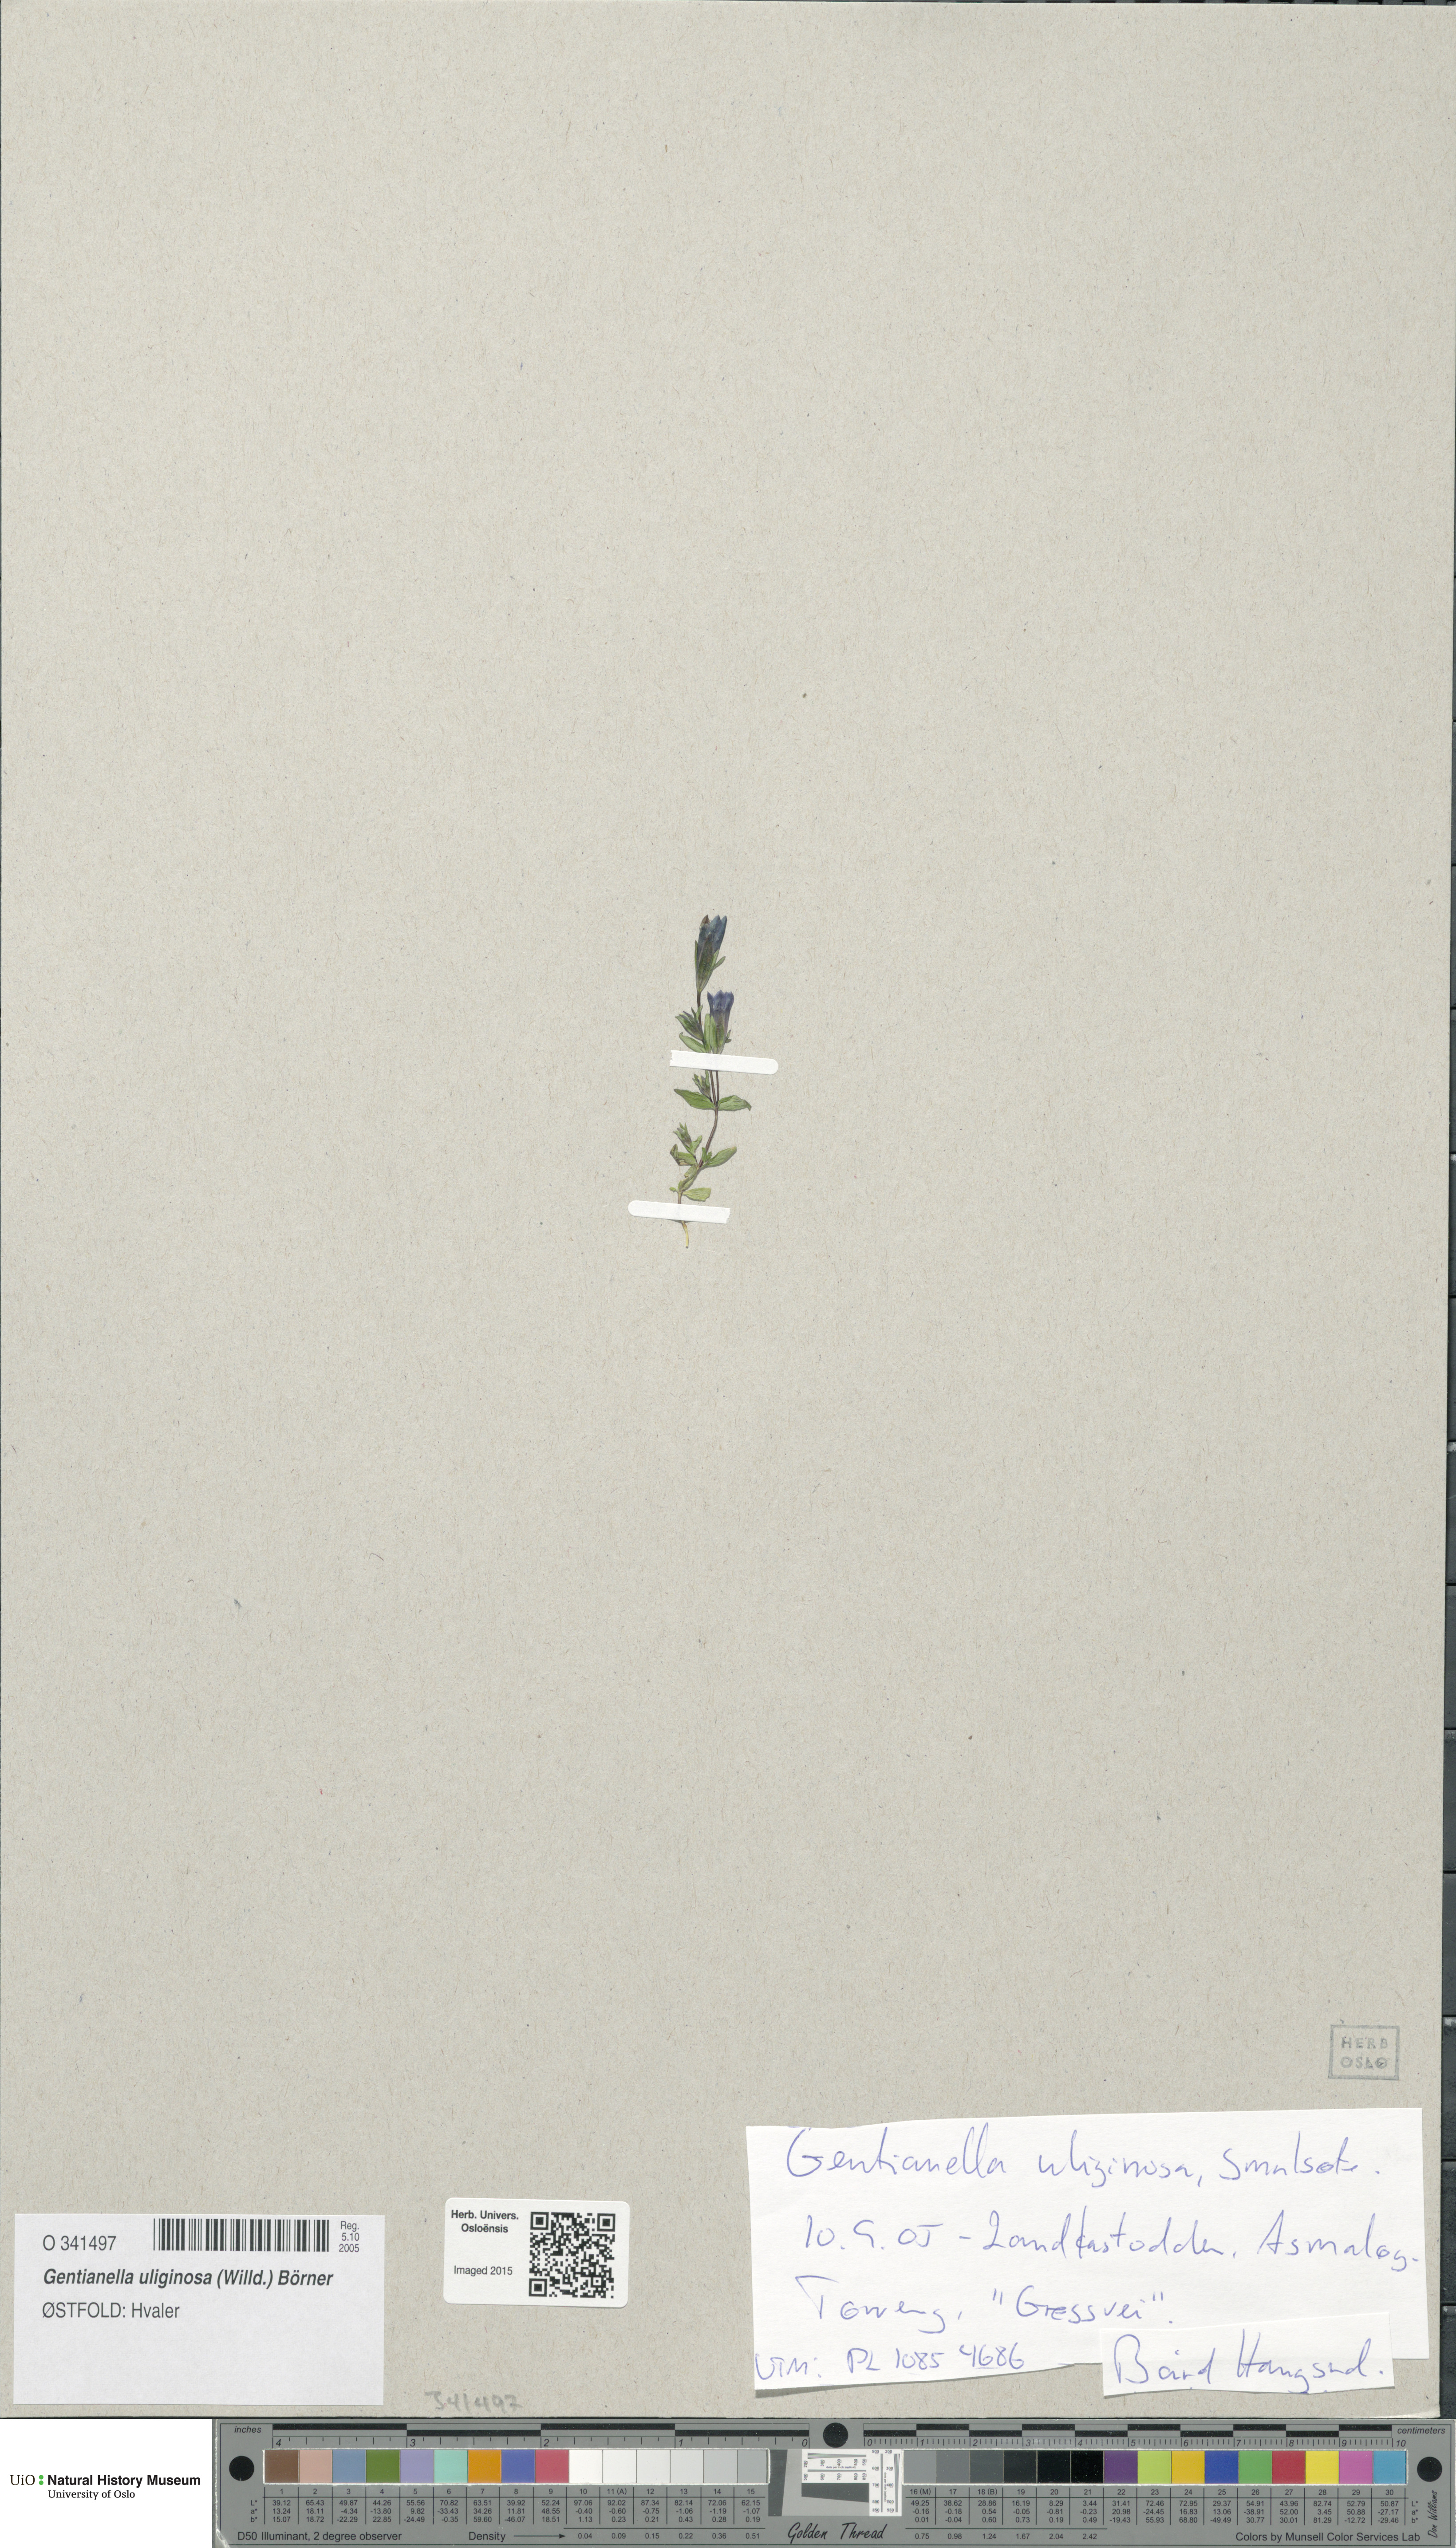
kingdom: Plantae
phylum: Tracheophyta
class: Magnoliopsida
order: Gentianales
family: Gentianaceae
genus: Gentianella
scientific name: Gentianella uliginosa
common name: Dune gentian
